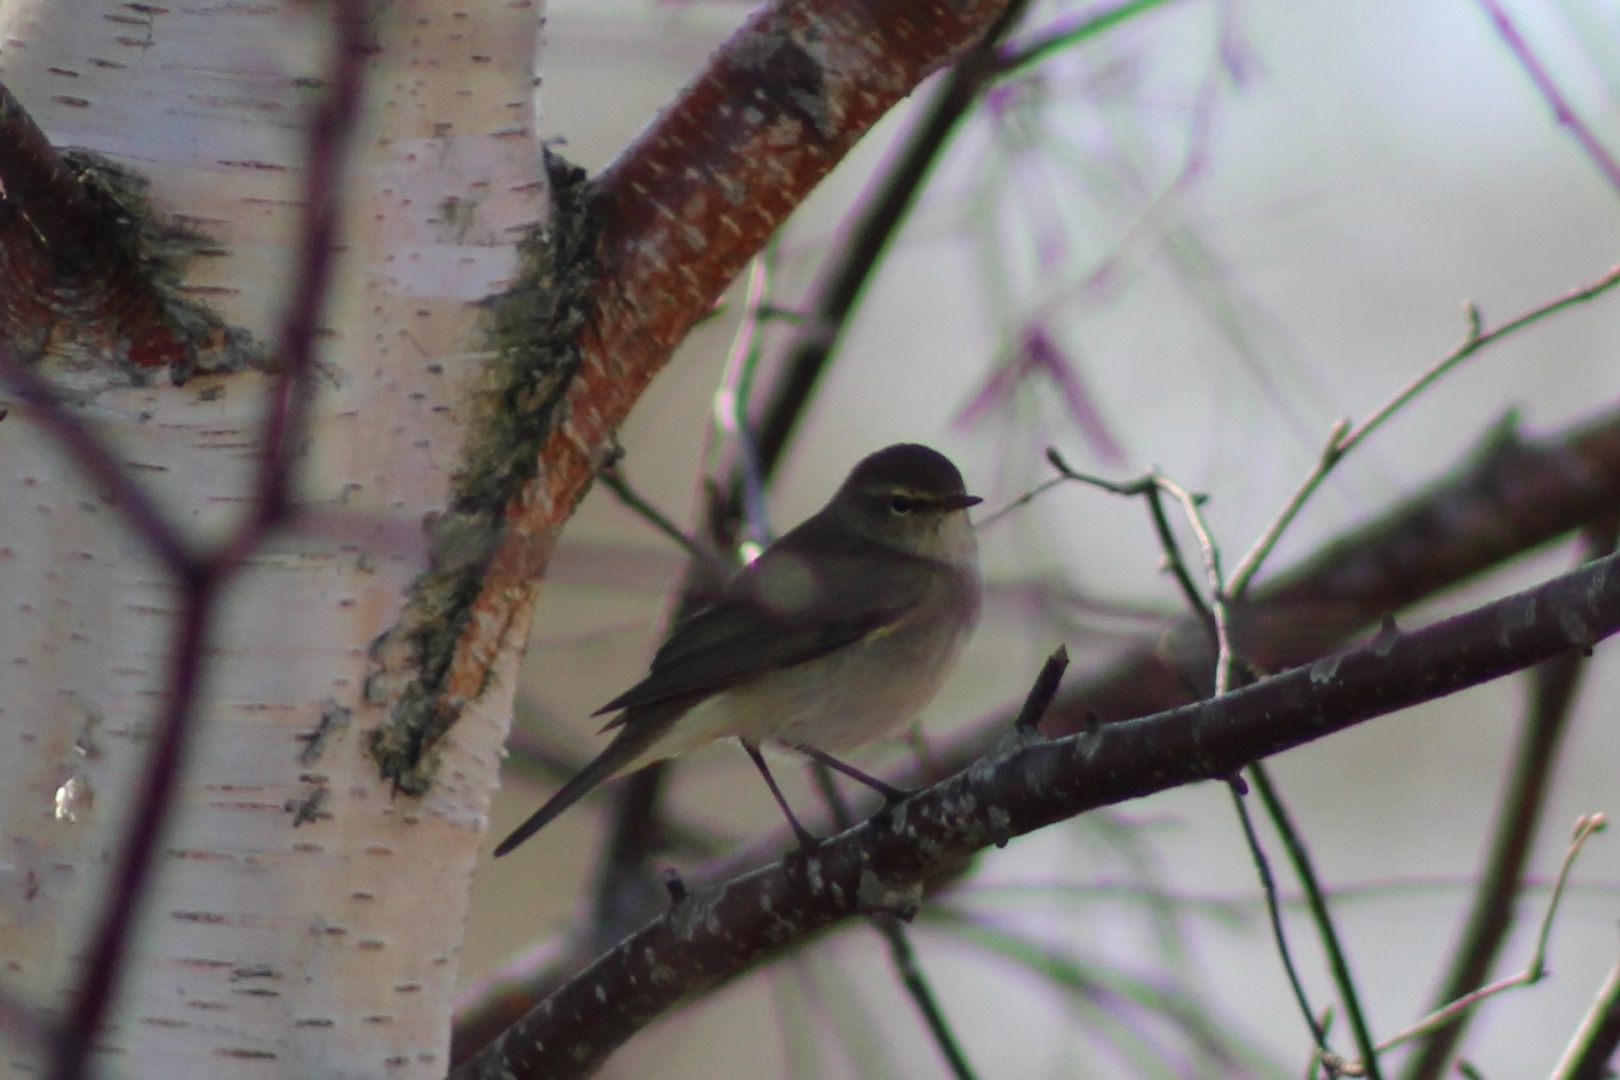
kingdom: Animalia
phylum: Chordata
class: Aves
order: Passeriformes
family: Phylloscopidae
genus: Phylloscopus
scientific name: Phylloscopus collybita
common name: Gransanger
